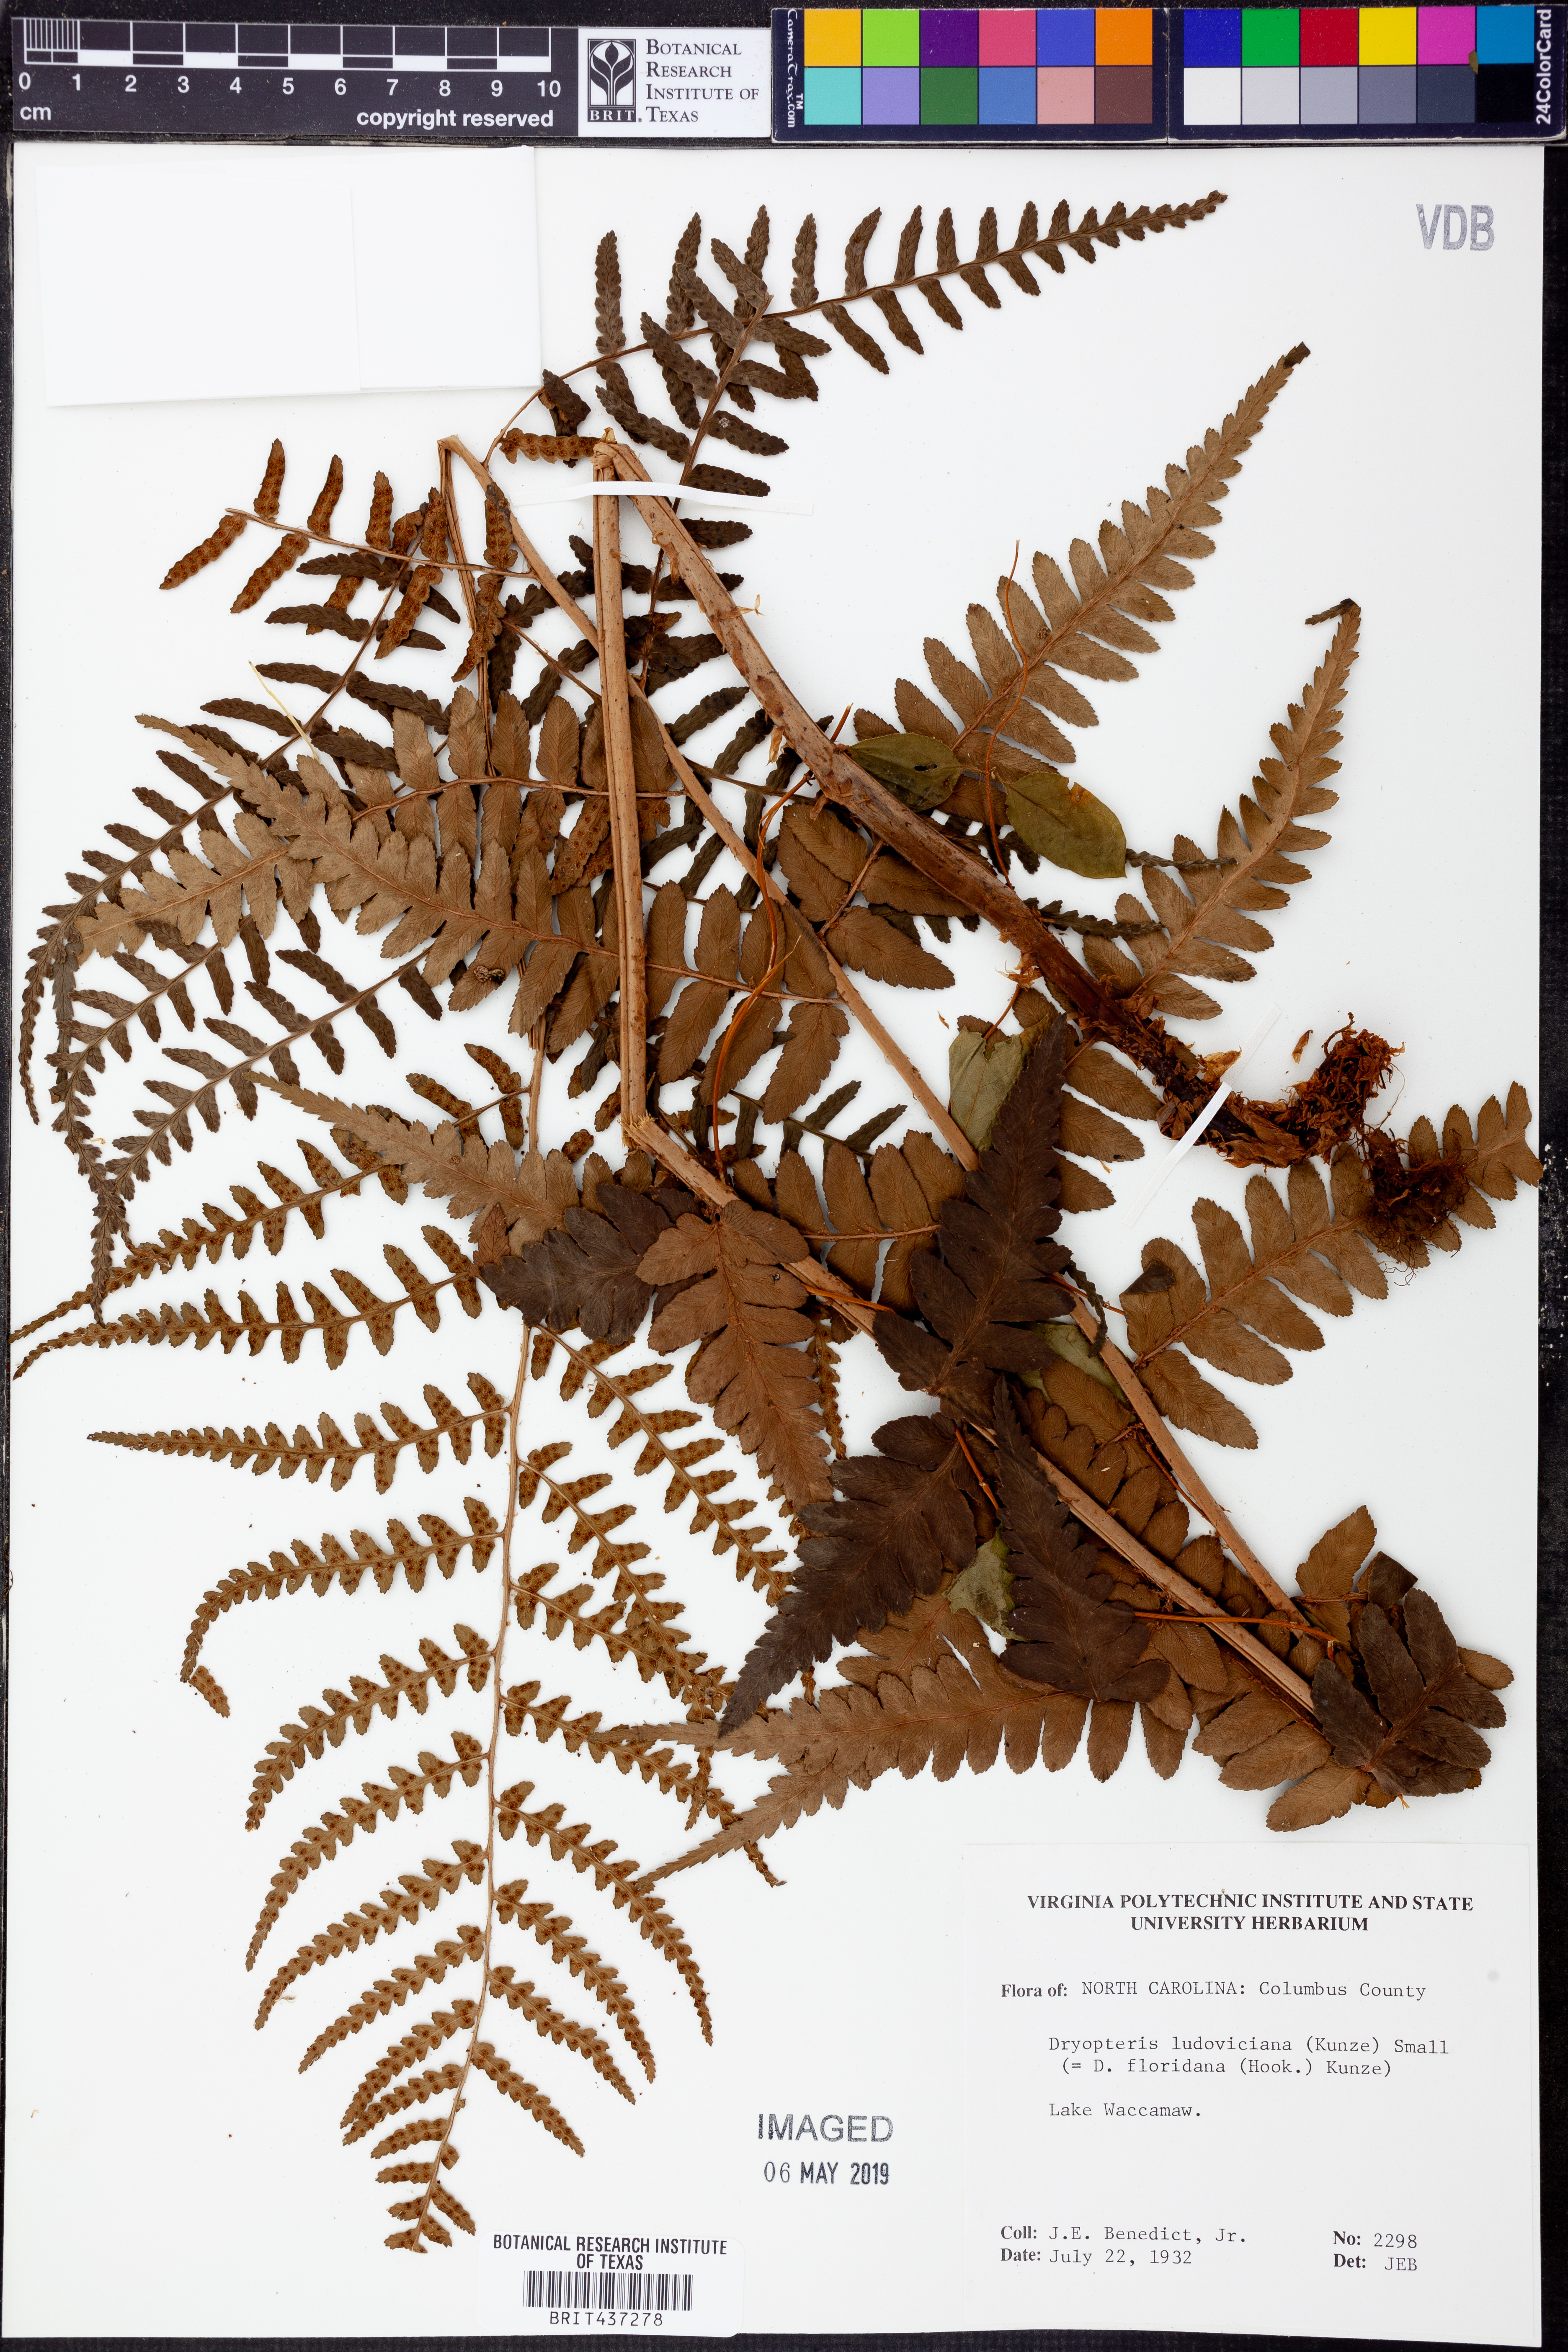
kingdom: Plantae
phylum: Tracheophyta
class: Polypodiopsida
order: Polypodiales
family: Dryopteridaceae
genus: Dryopteris
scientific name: Dryopteris ludoviciana
